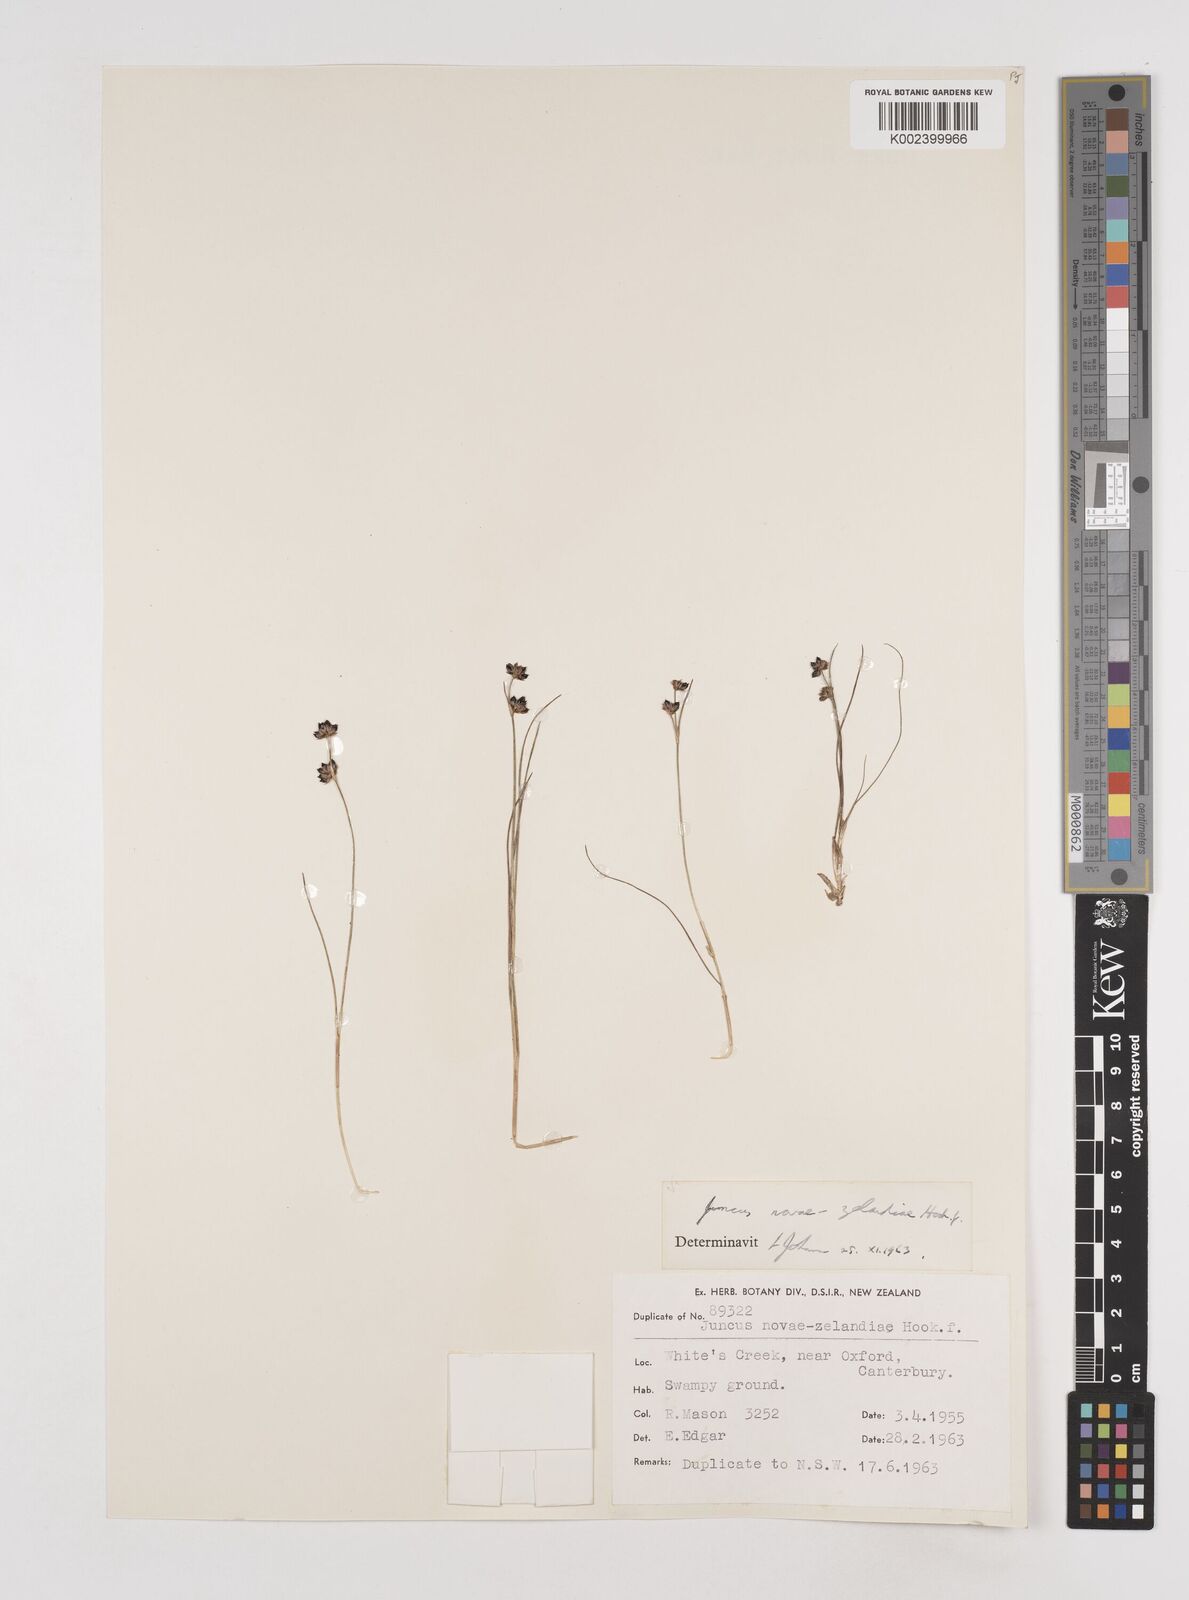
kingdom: Plantae
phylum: Tracheophyta
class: Liliopsida
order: Poales
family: Juncaceae
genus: Juncus
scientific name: Juncus novae-zelandiae
